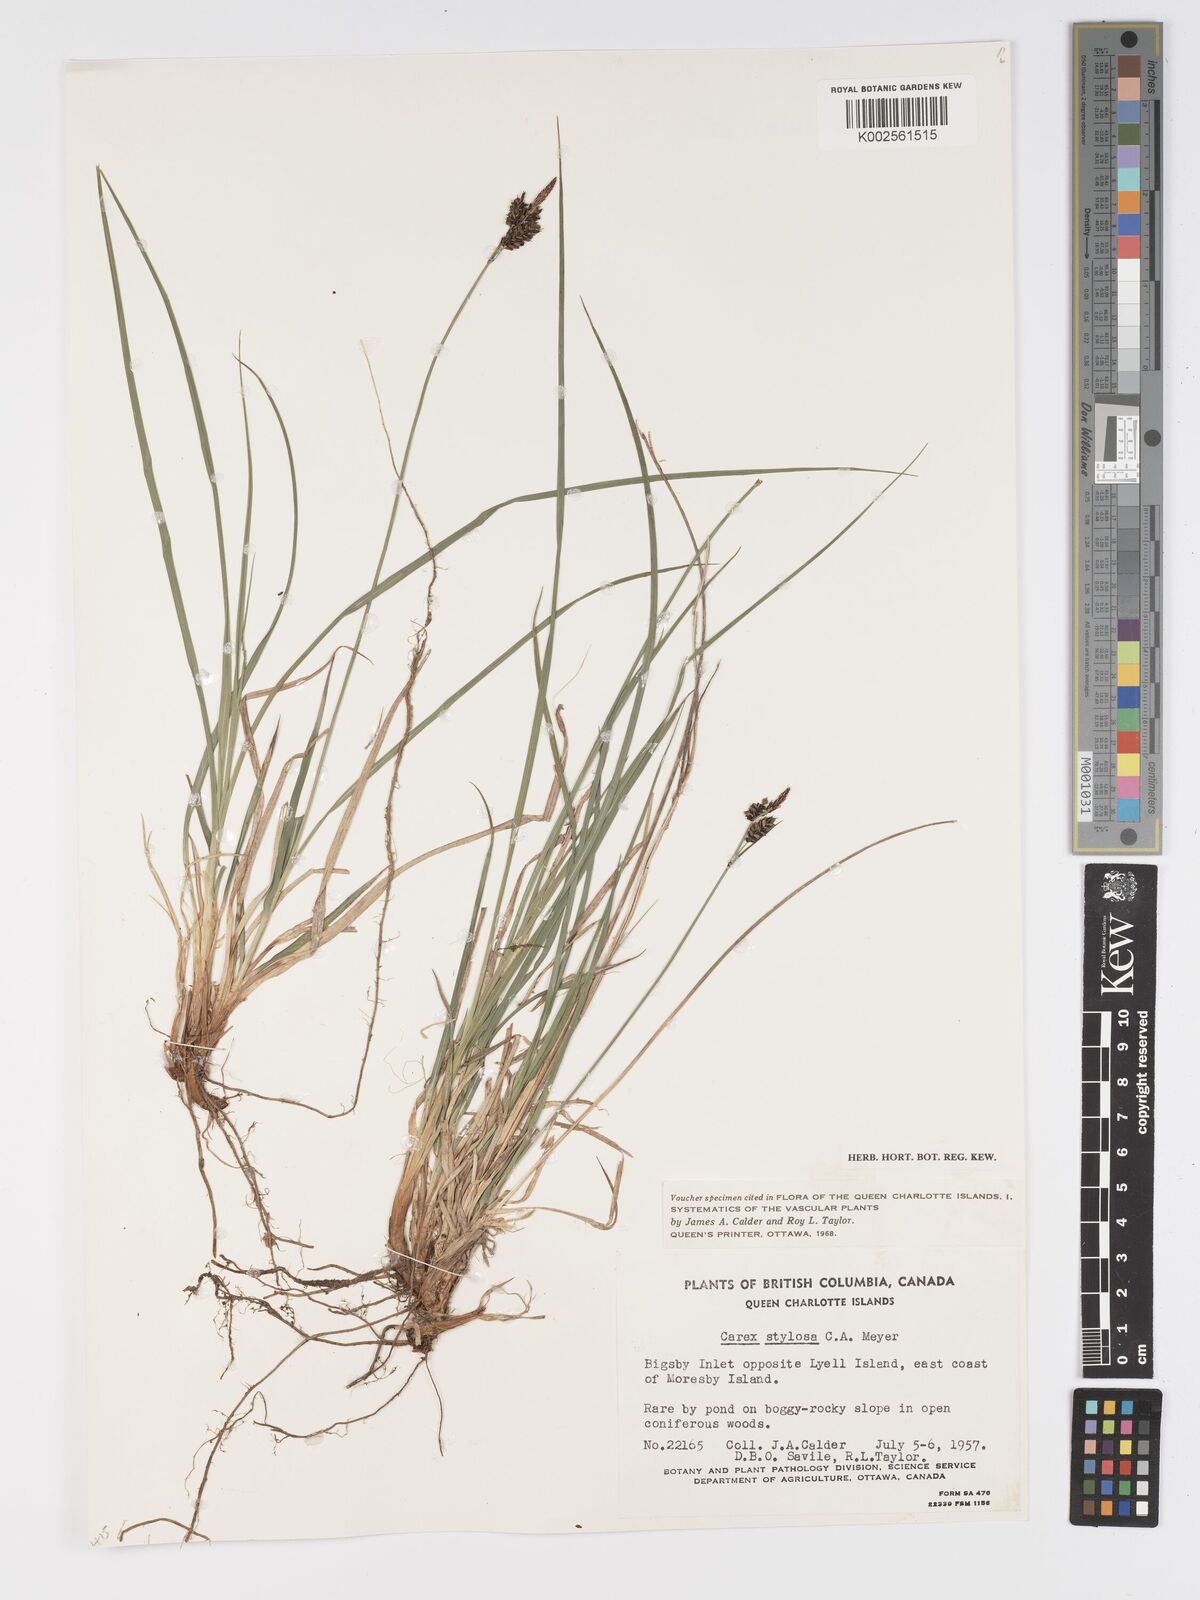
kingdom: Plantae
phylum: Tracheophyta
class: Liliopsida
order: Poales
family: Cyperaceae
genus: Carex
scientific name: Carex stylosa
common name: Long-styled sedge
